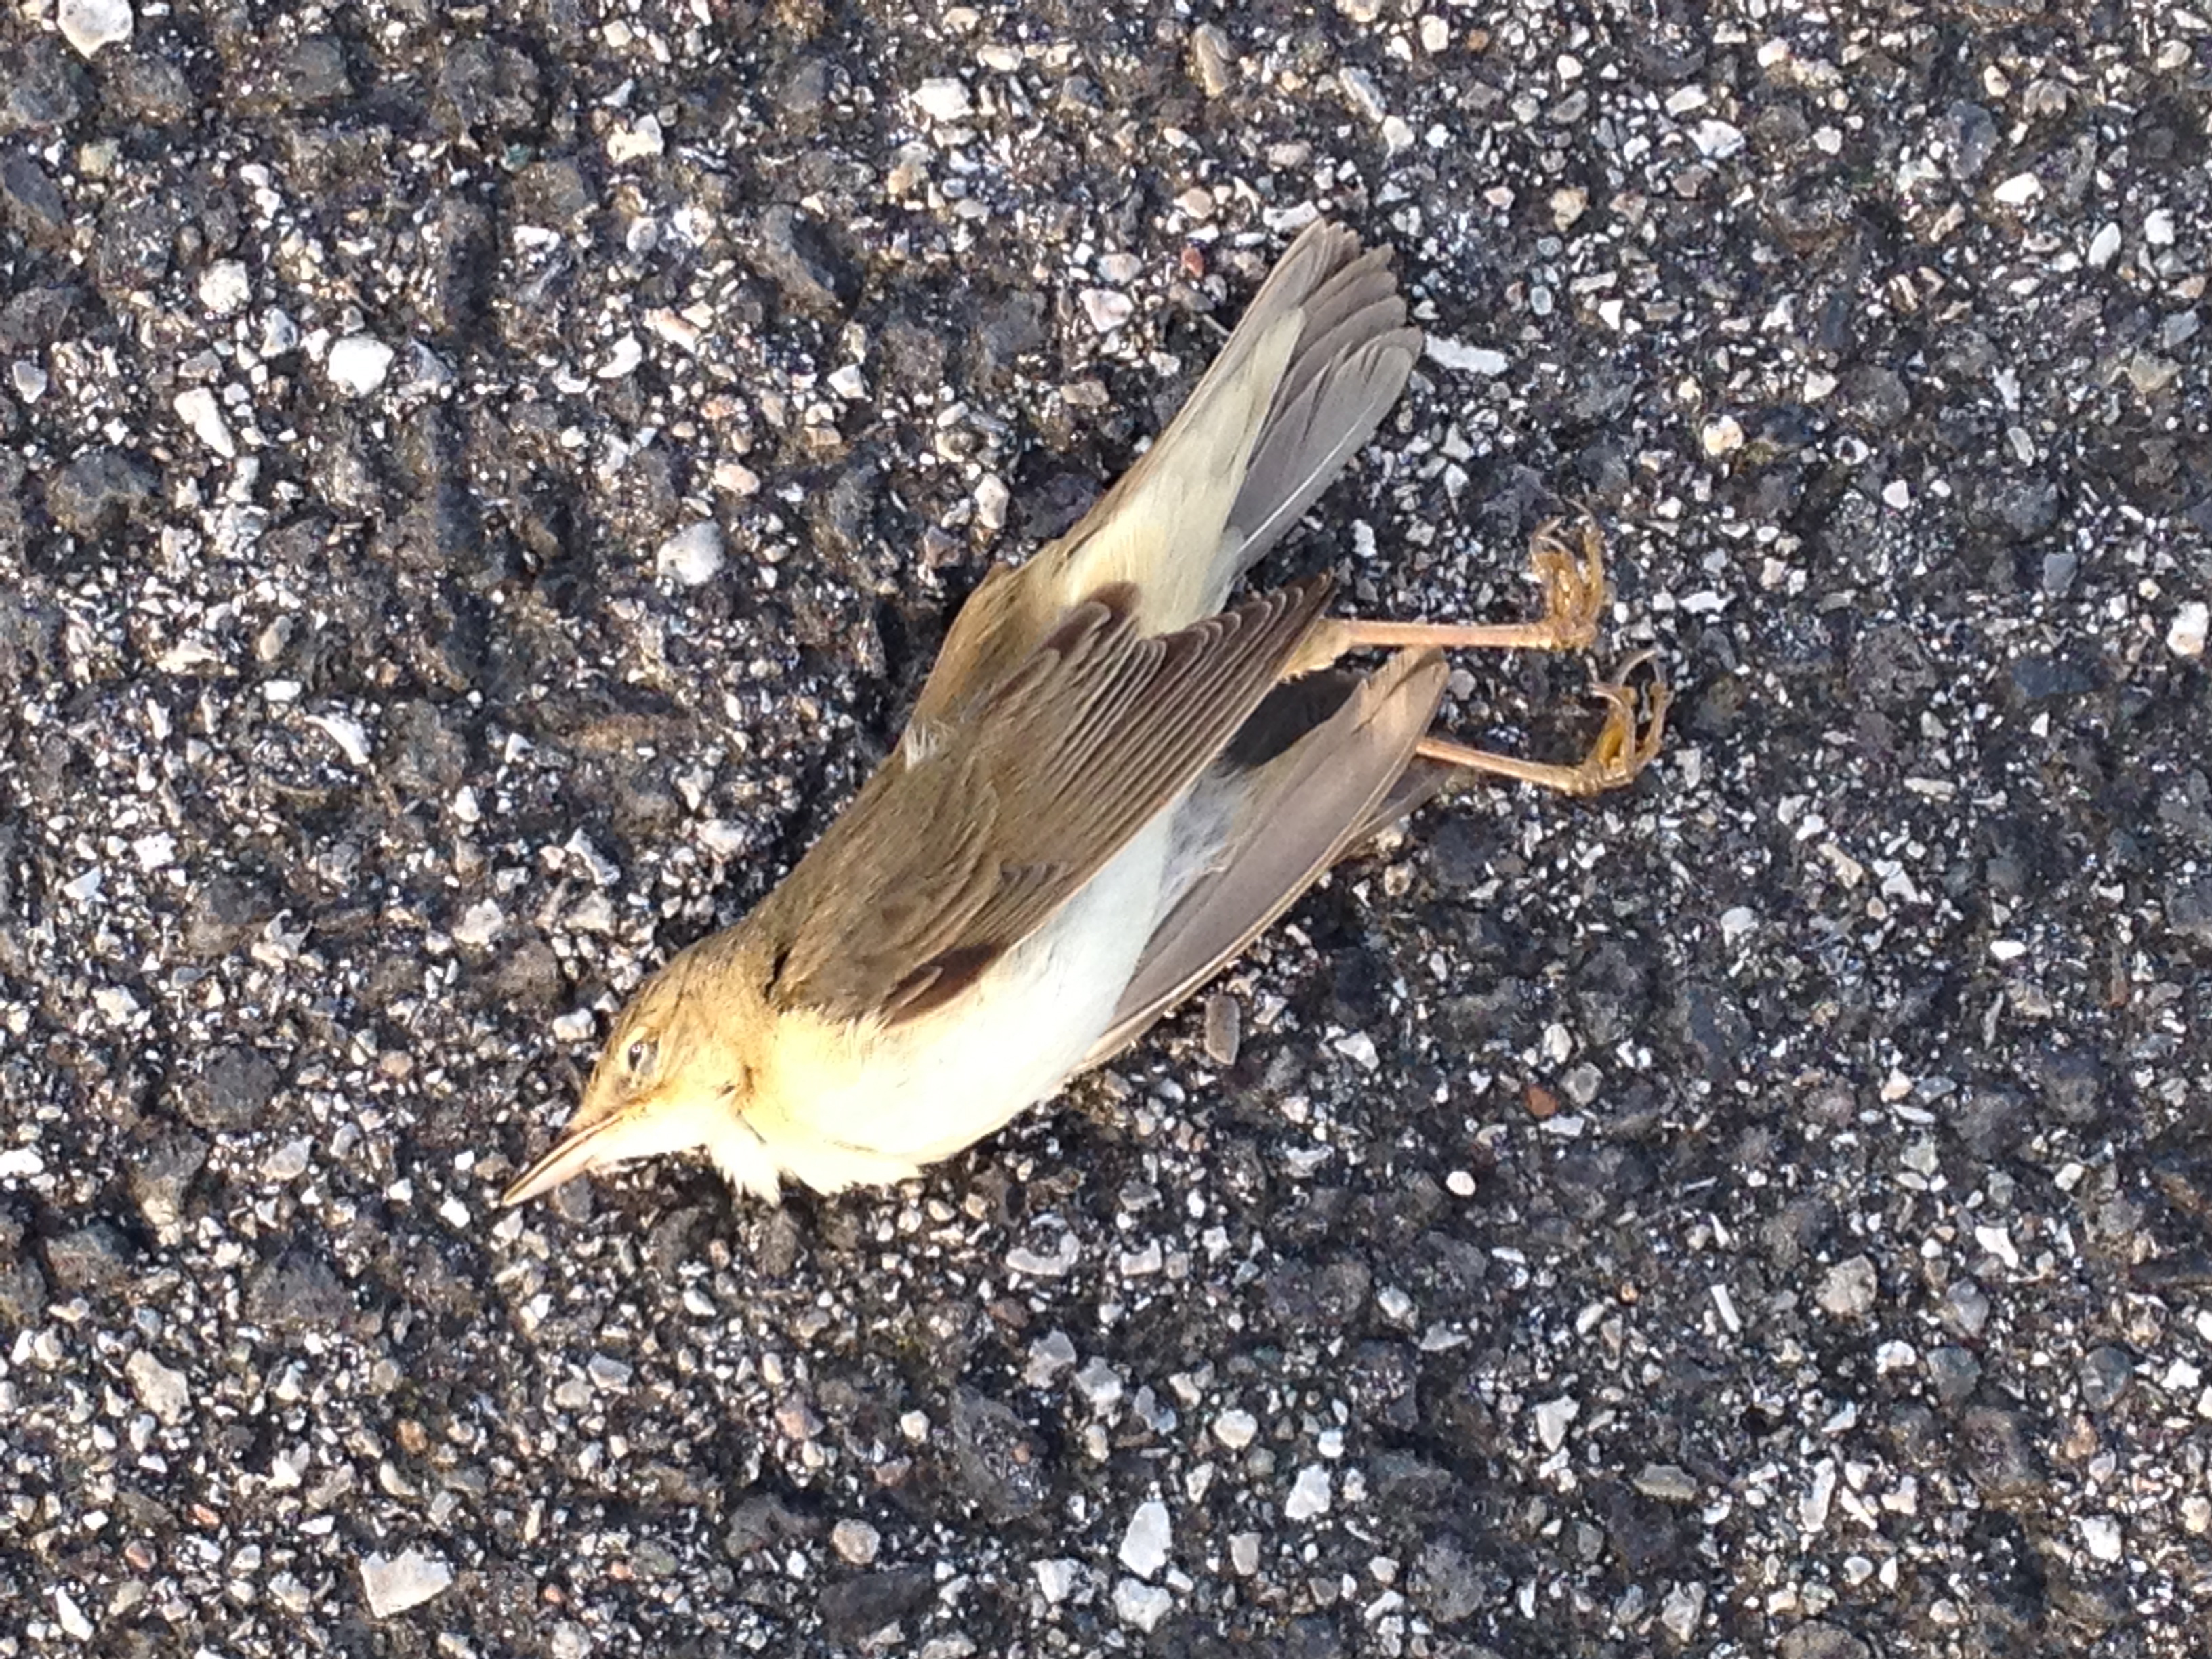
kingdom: Animalia
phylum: Chordata
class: Aves
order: Passeriformes
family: Acrocephalidae
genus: Acrocephalus
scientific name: Acrocephalus
